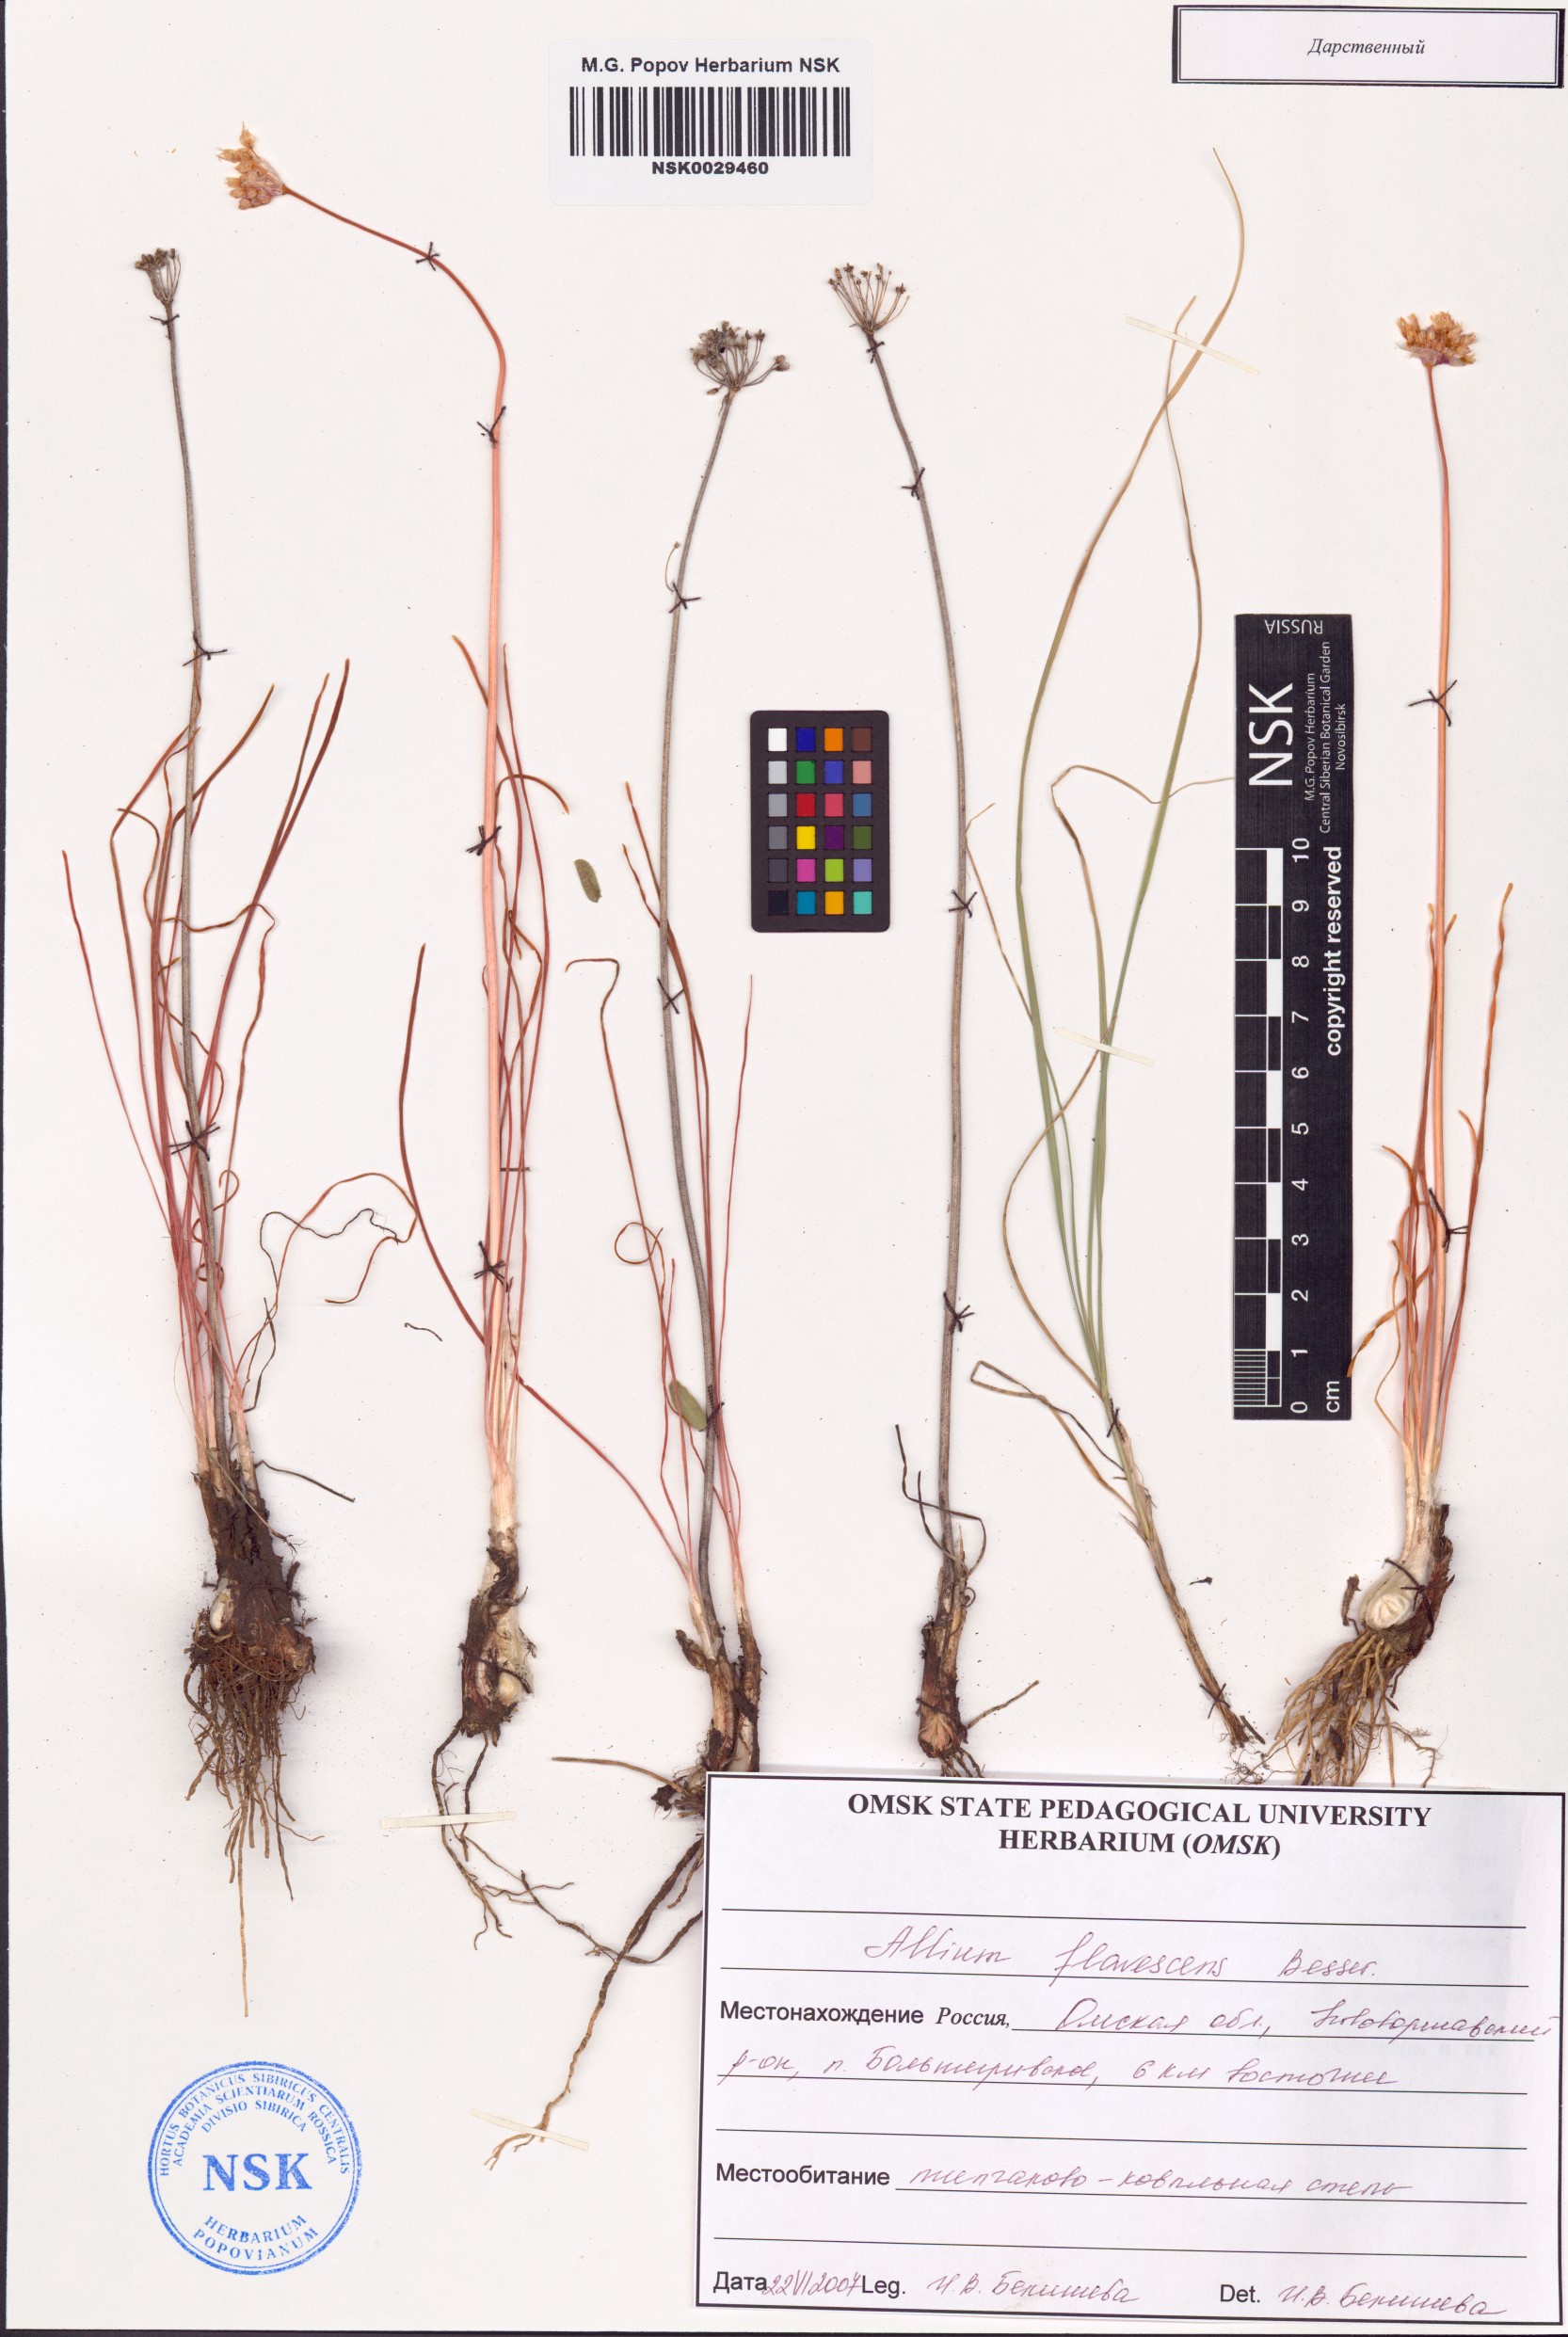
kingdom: Plantae
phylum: Tracheophyta
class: Liliopsida
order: Asparagales
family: Amaryllidaceae
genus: Allium
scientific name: Allium flavescens
